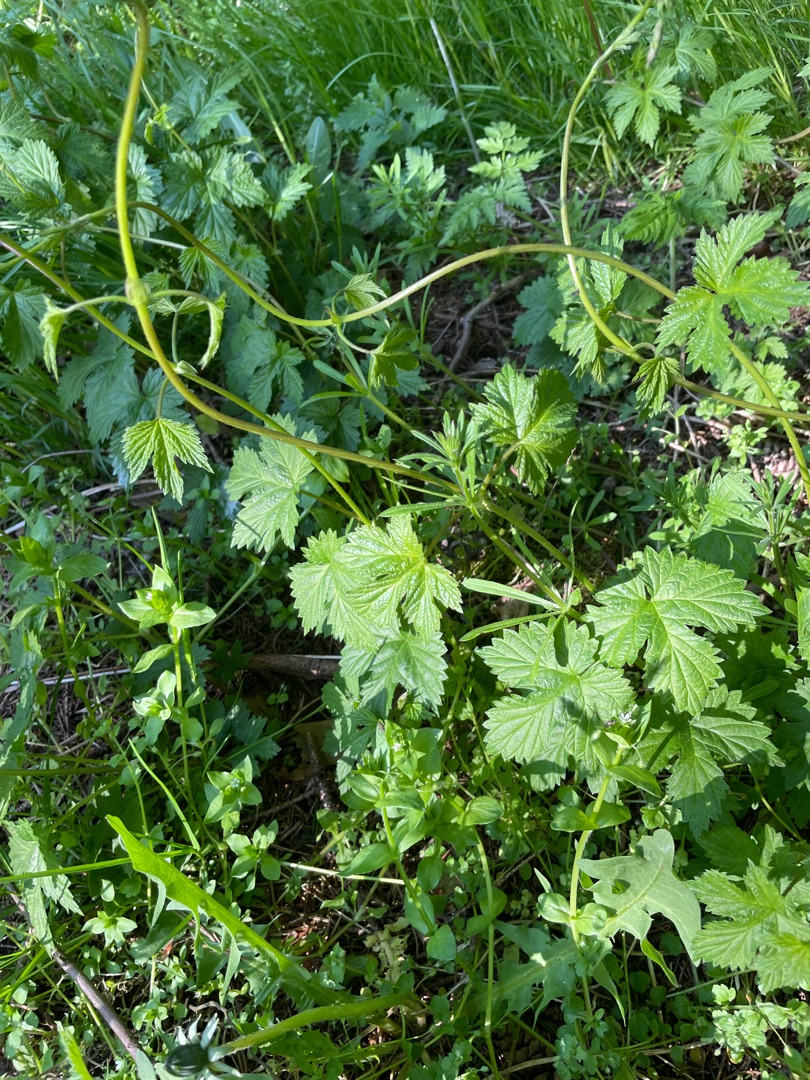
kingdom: Plantae
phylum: Tracheophyta
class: Magnoliopsida
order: Rosales
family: Cannabaceae
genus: Humulus
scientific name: Humulus lupulus
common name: Humle
